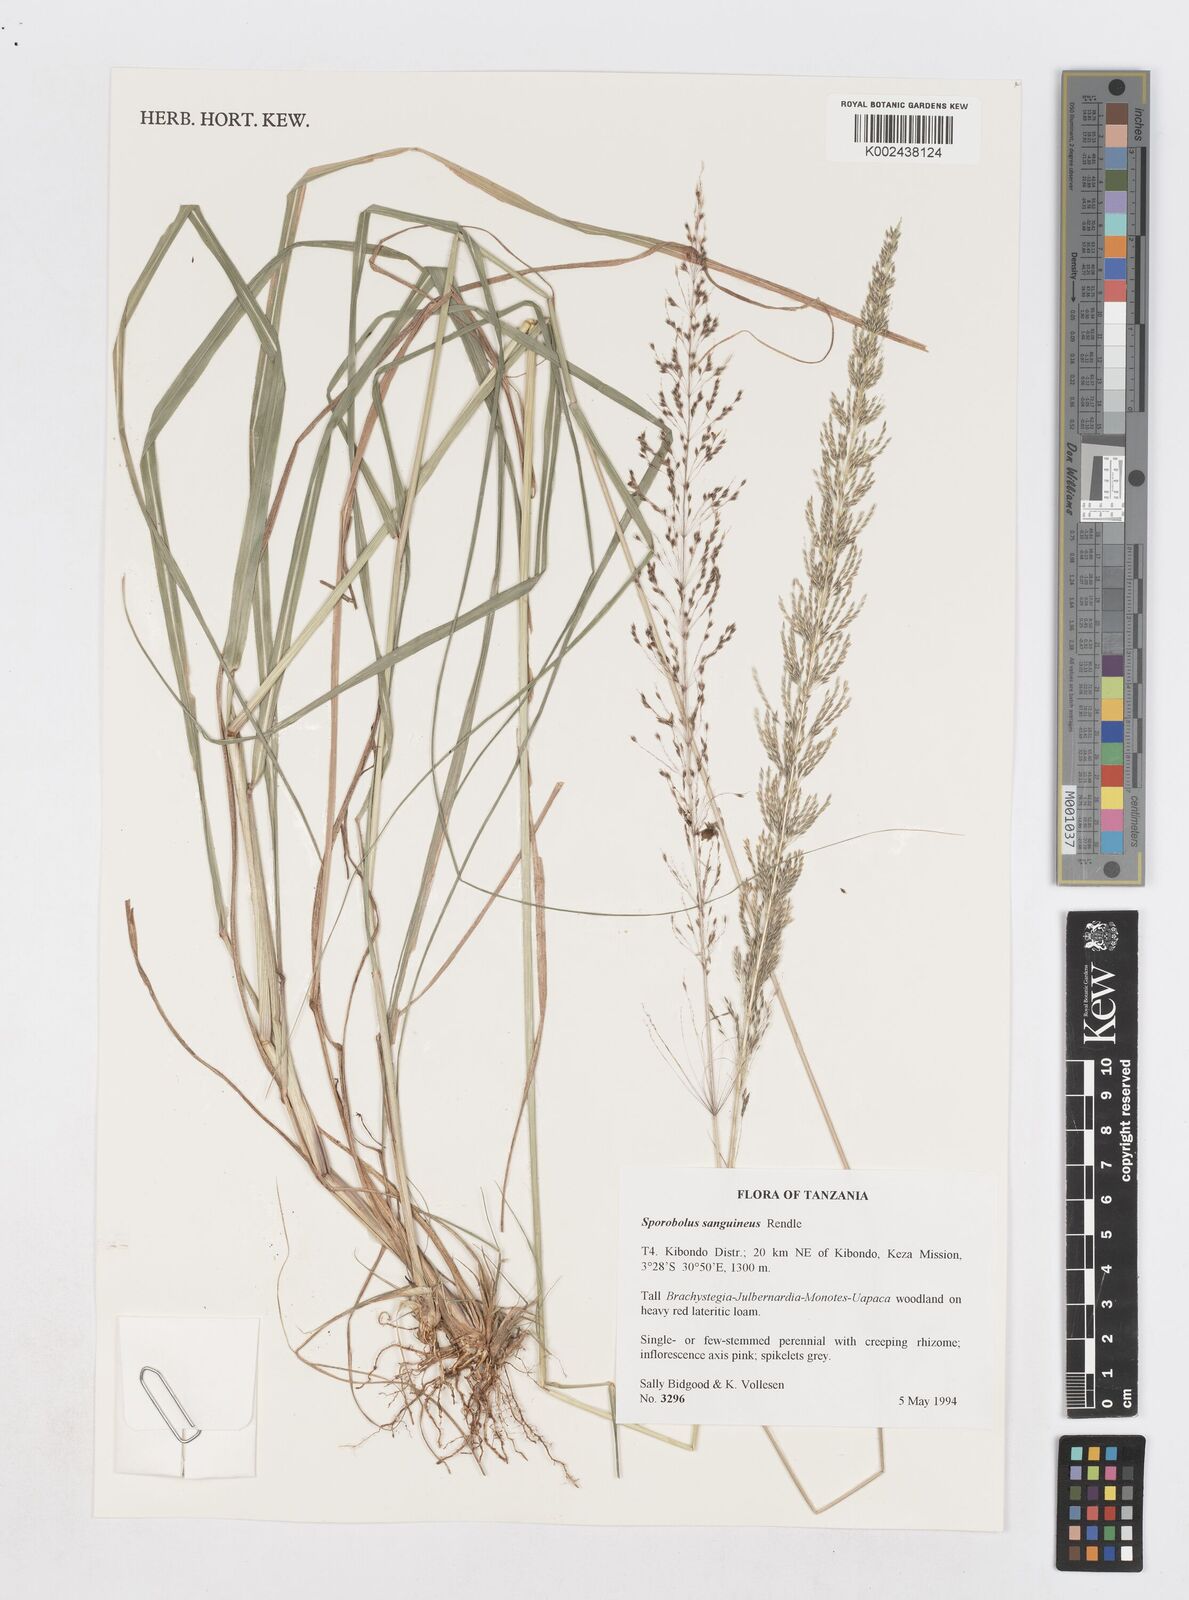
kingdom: Plantae
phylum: Tracheophyta
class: Liliopsida
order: Poales
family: Poaceae
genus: Sporobolus
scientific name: Sporobolus sanguineus
